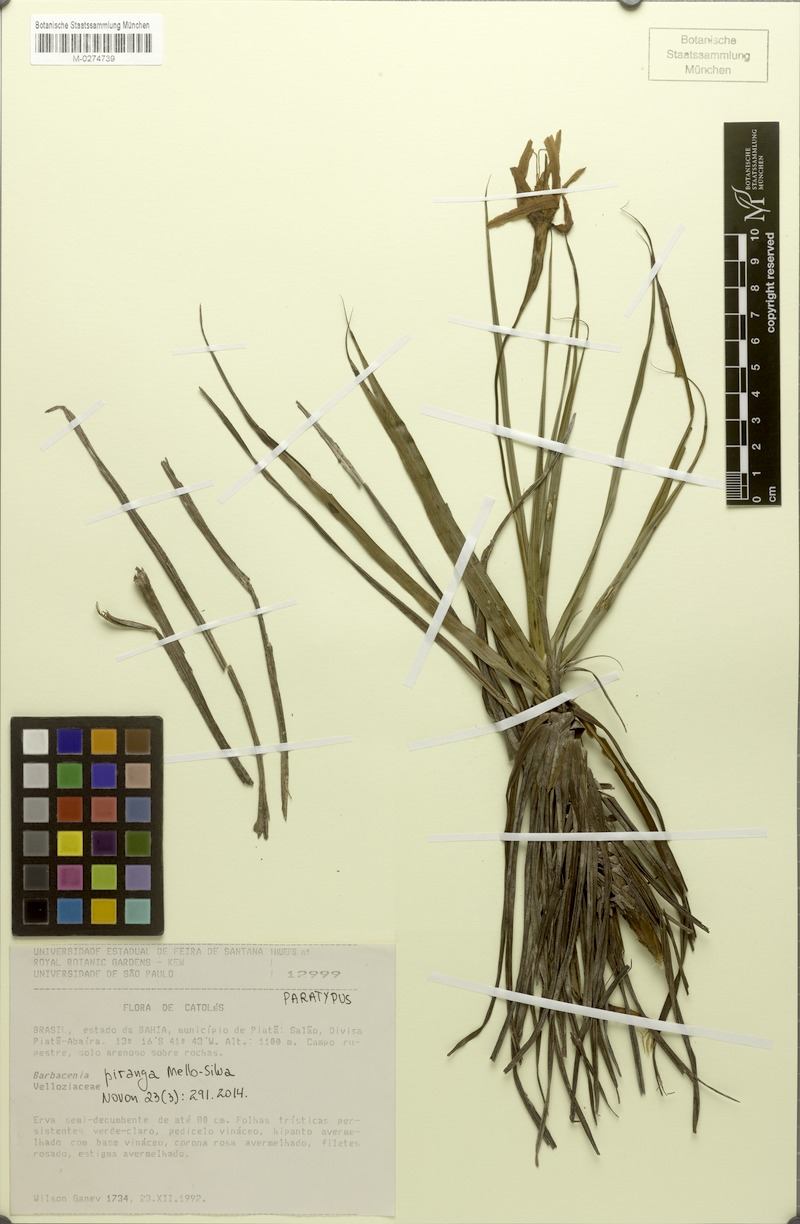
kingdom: Plantae
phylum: Tracheophyta
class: Liliopsida
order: Pandanales
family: Velloziaceae
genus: Barbacenia
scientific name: Barbacenia piranga
